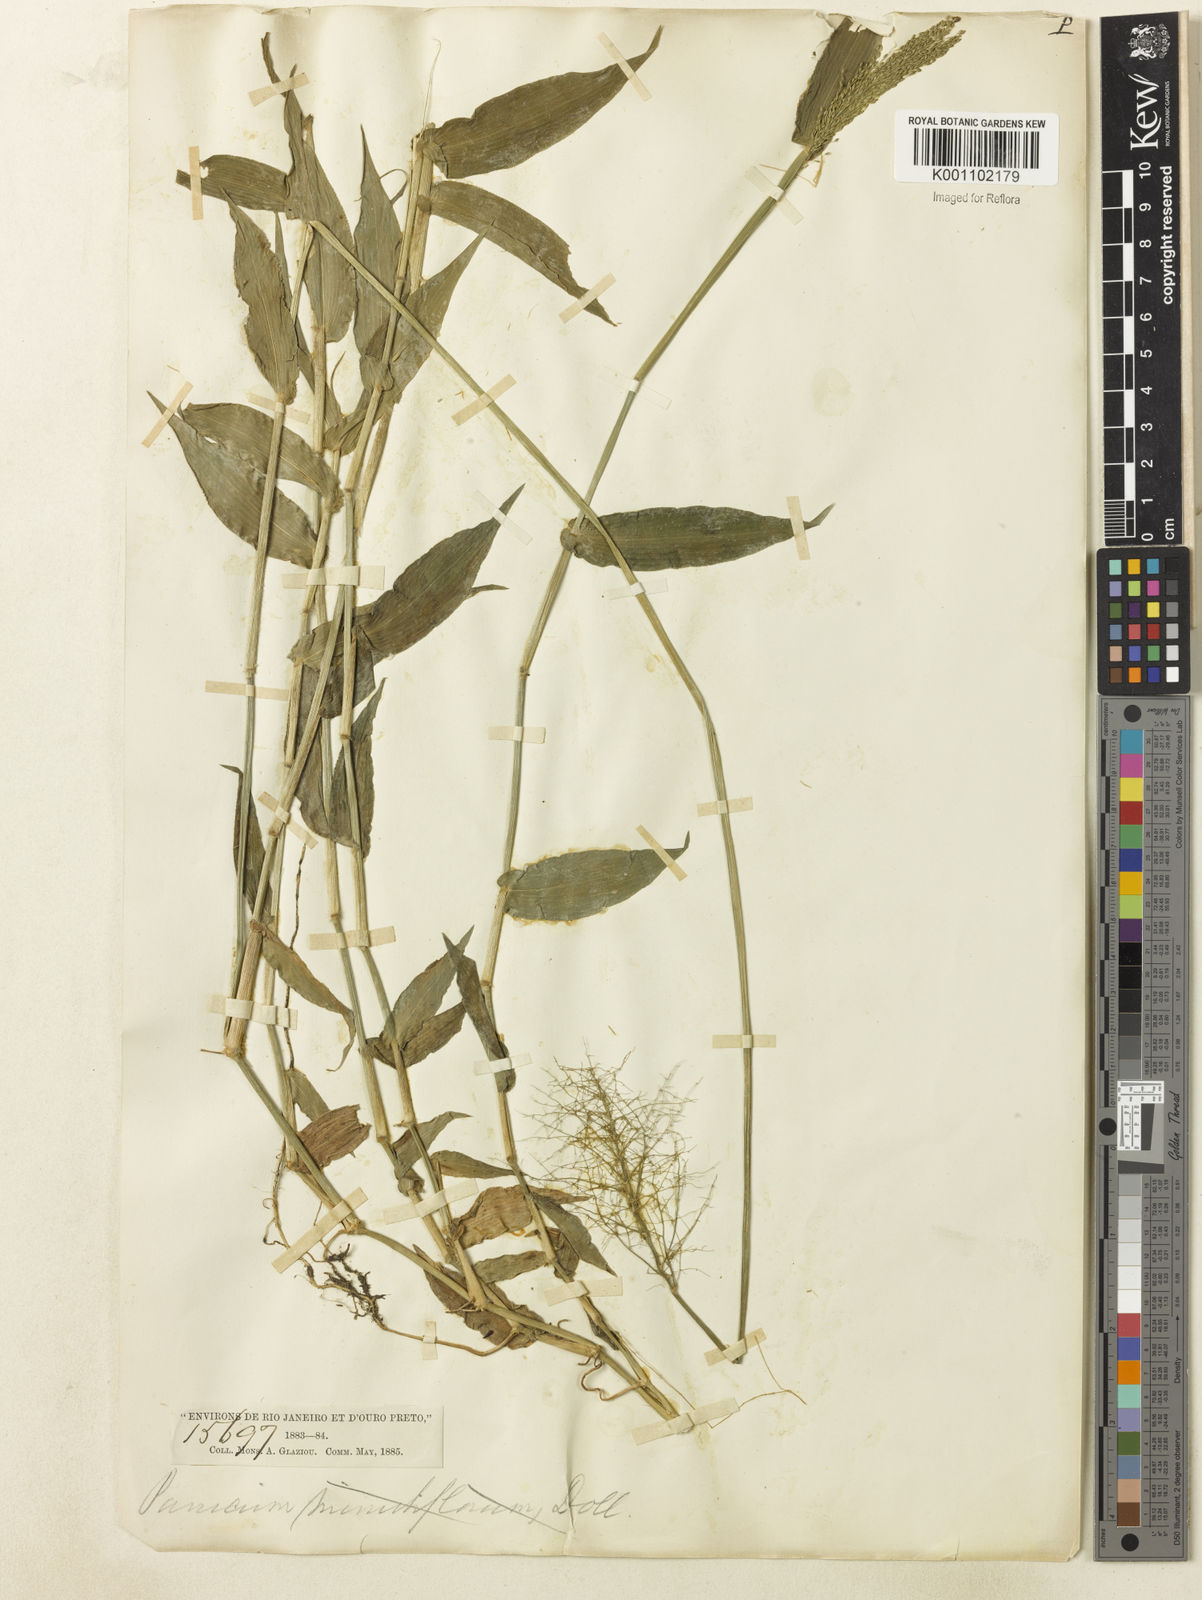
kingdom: Plantae
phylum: Tracheophyta
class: Liliopsida
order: Poales
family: Poaceae
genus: Dichanthelium
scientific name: Dichanthelium sciurotoides
